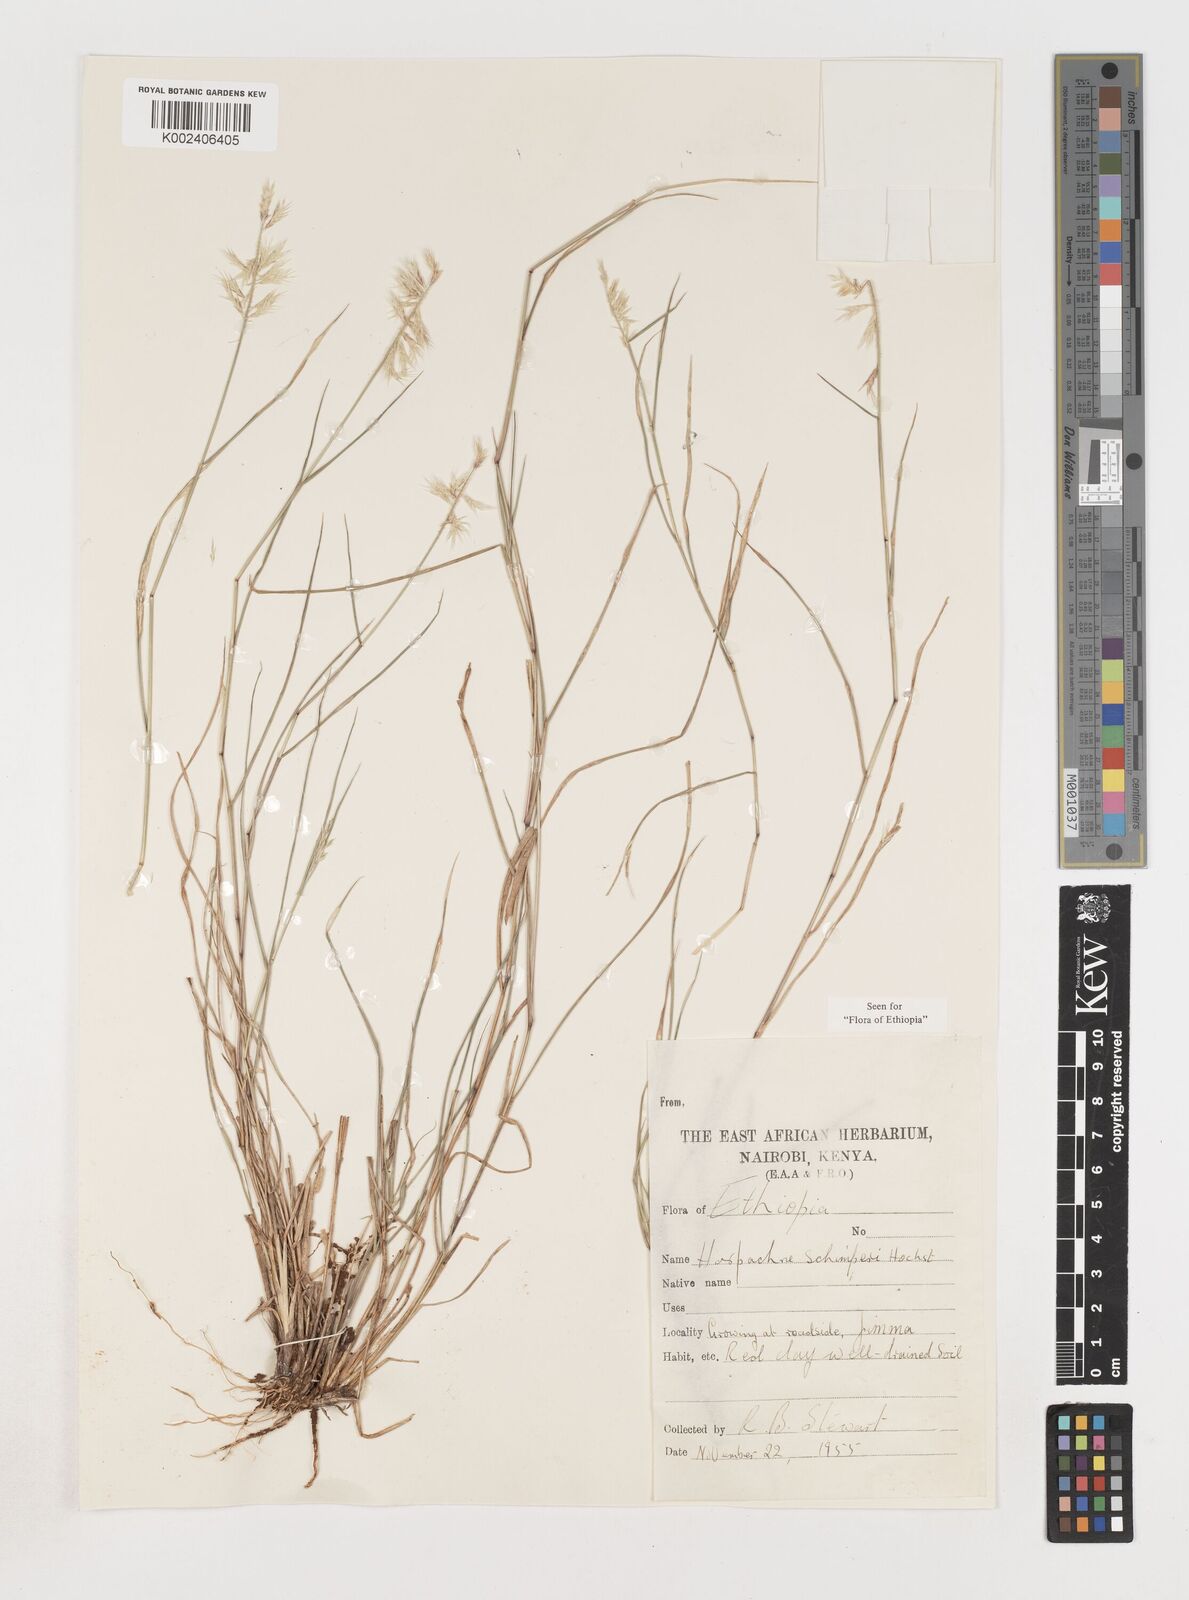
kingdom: Plantae
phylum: Tracheophyta
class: Liliopsida
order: Poales
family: Poaceae
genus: Harpachne
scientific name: Harpachne schimperi
